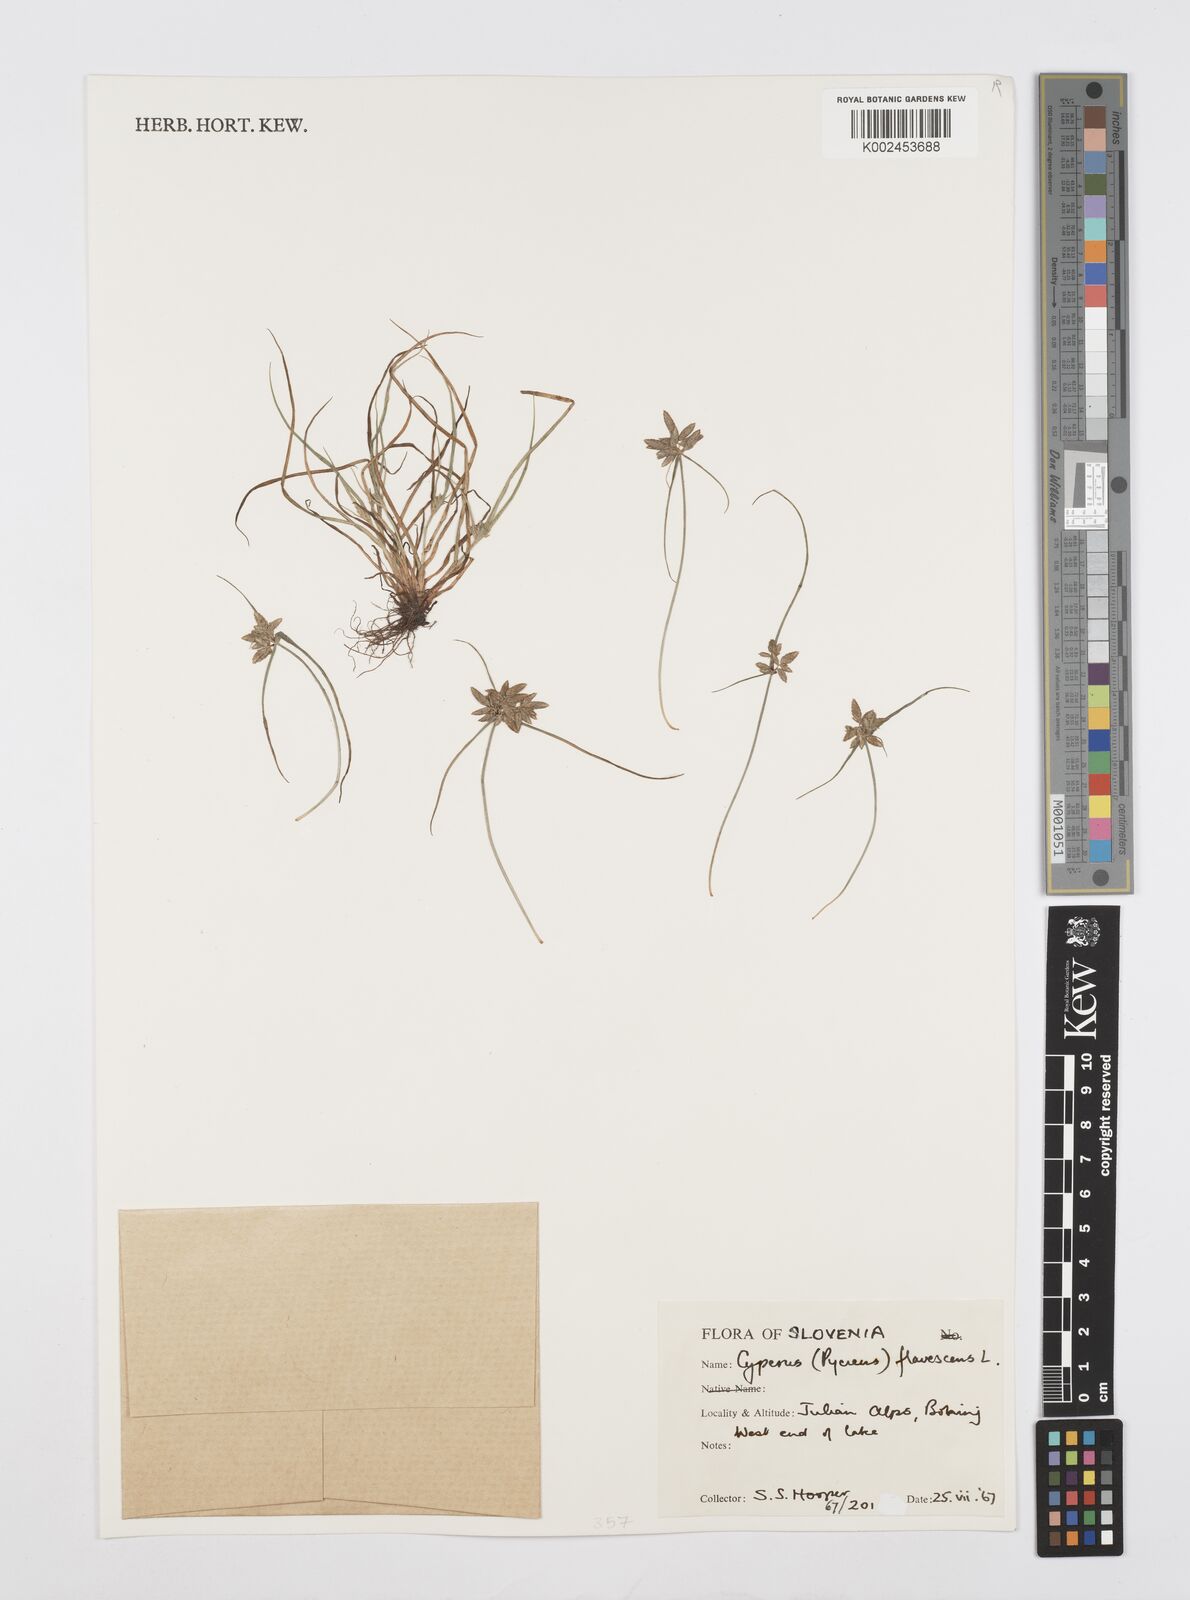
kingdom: Plantae
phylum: Tracheophyta
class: Liliopsida
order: Poales
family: Cyperaceae
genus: Cyperus
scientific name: Cyperus flavescens
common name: Yellow galingale
